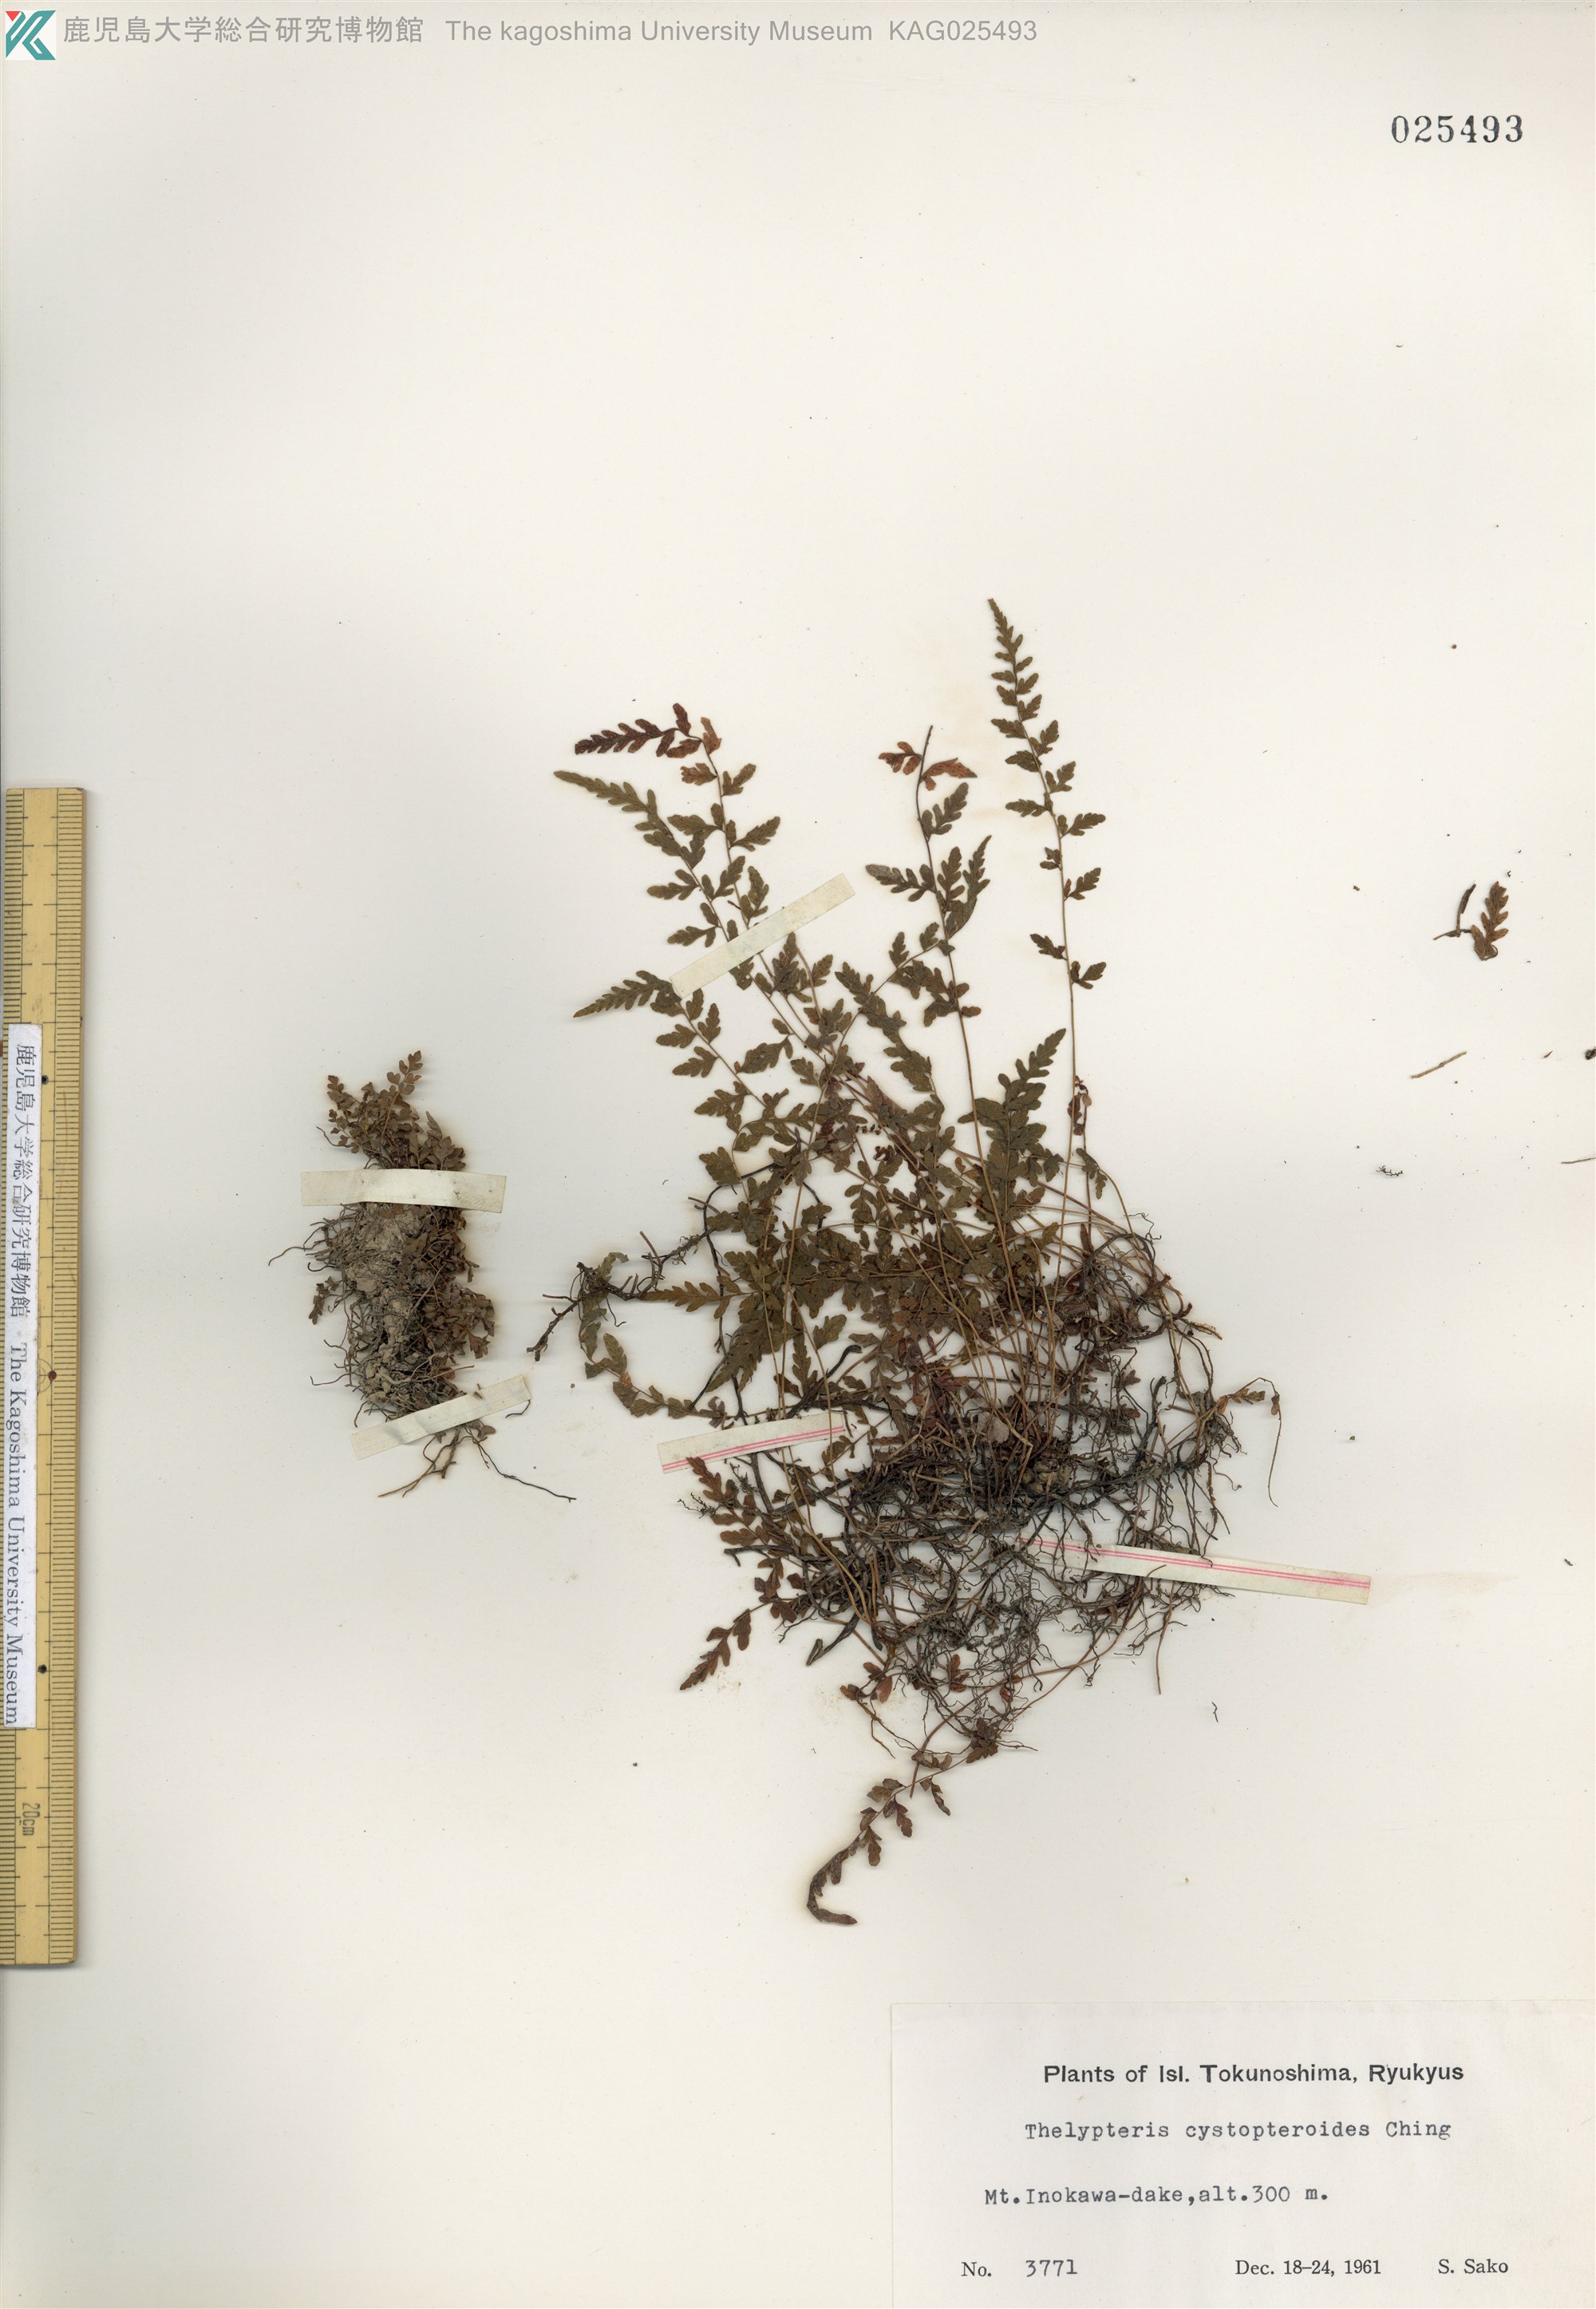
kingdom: Plantae
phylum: Tracheophyta
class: Polypodiopsida
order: Polypodiales
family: Thelypteridaceae
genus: Amauropelta
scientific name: Amauropelta cystopteroides
